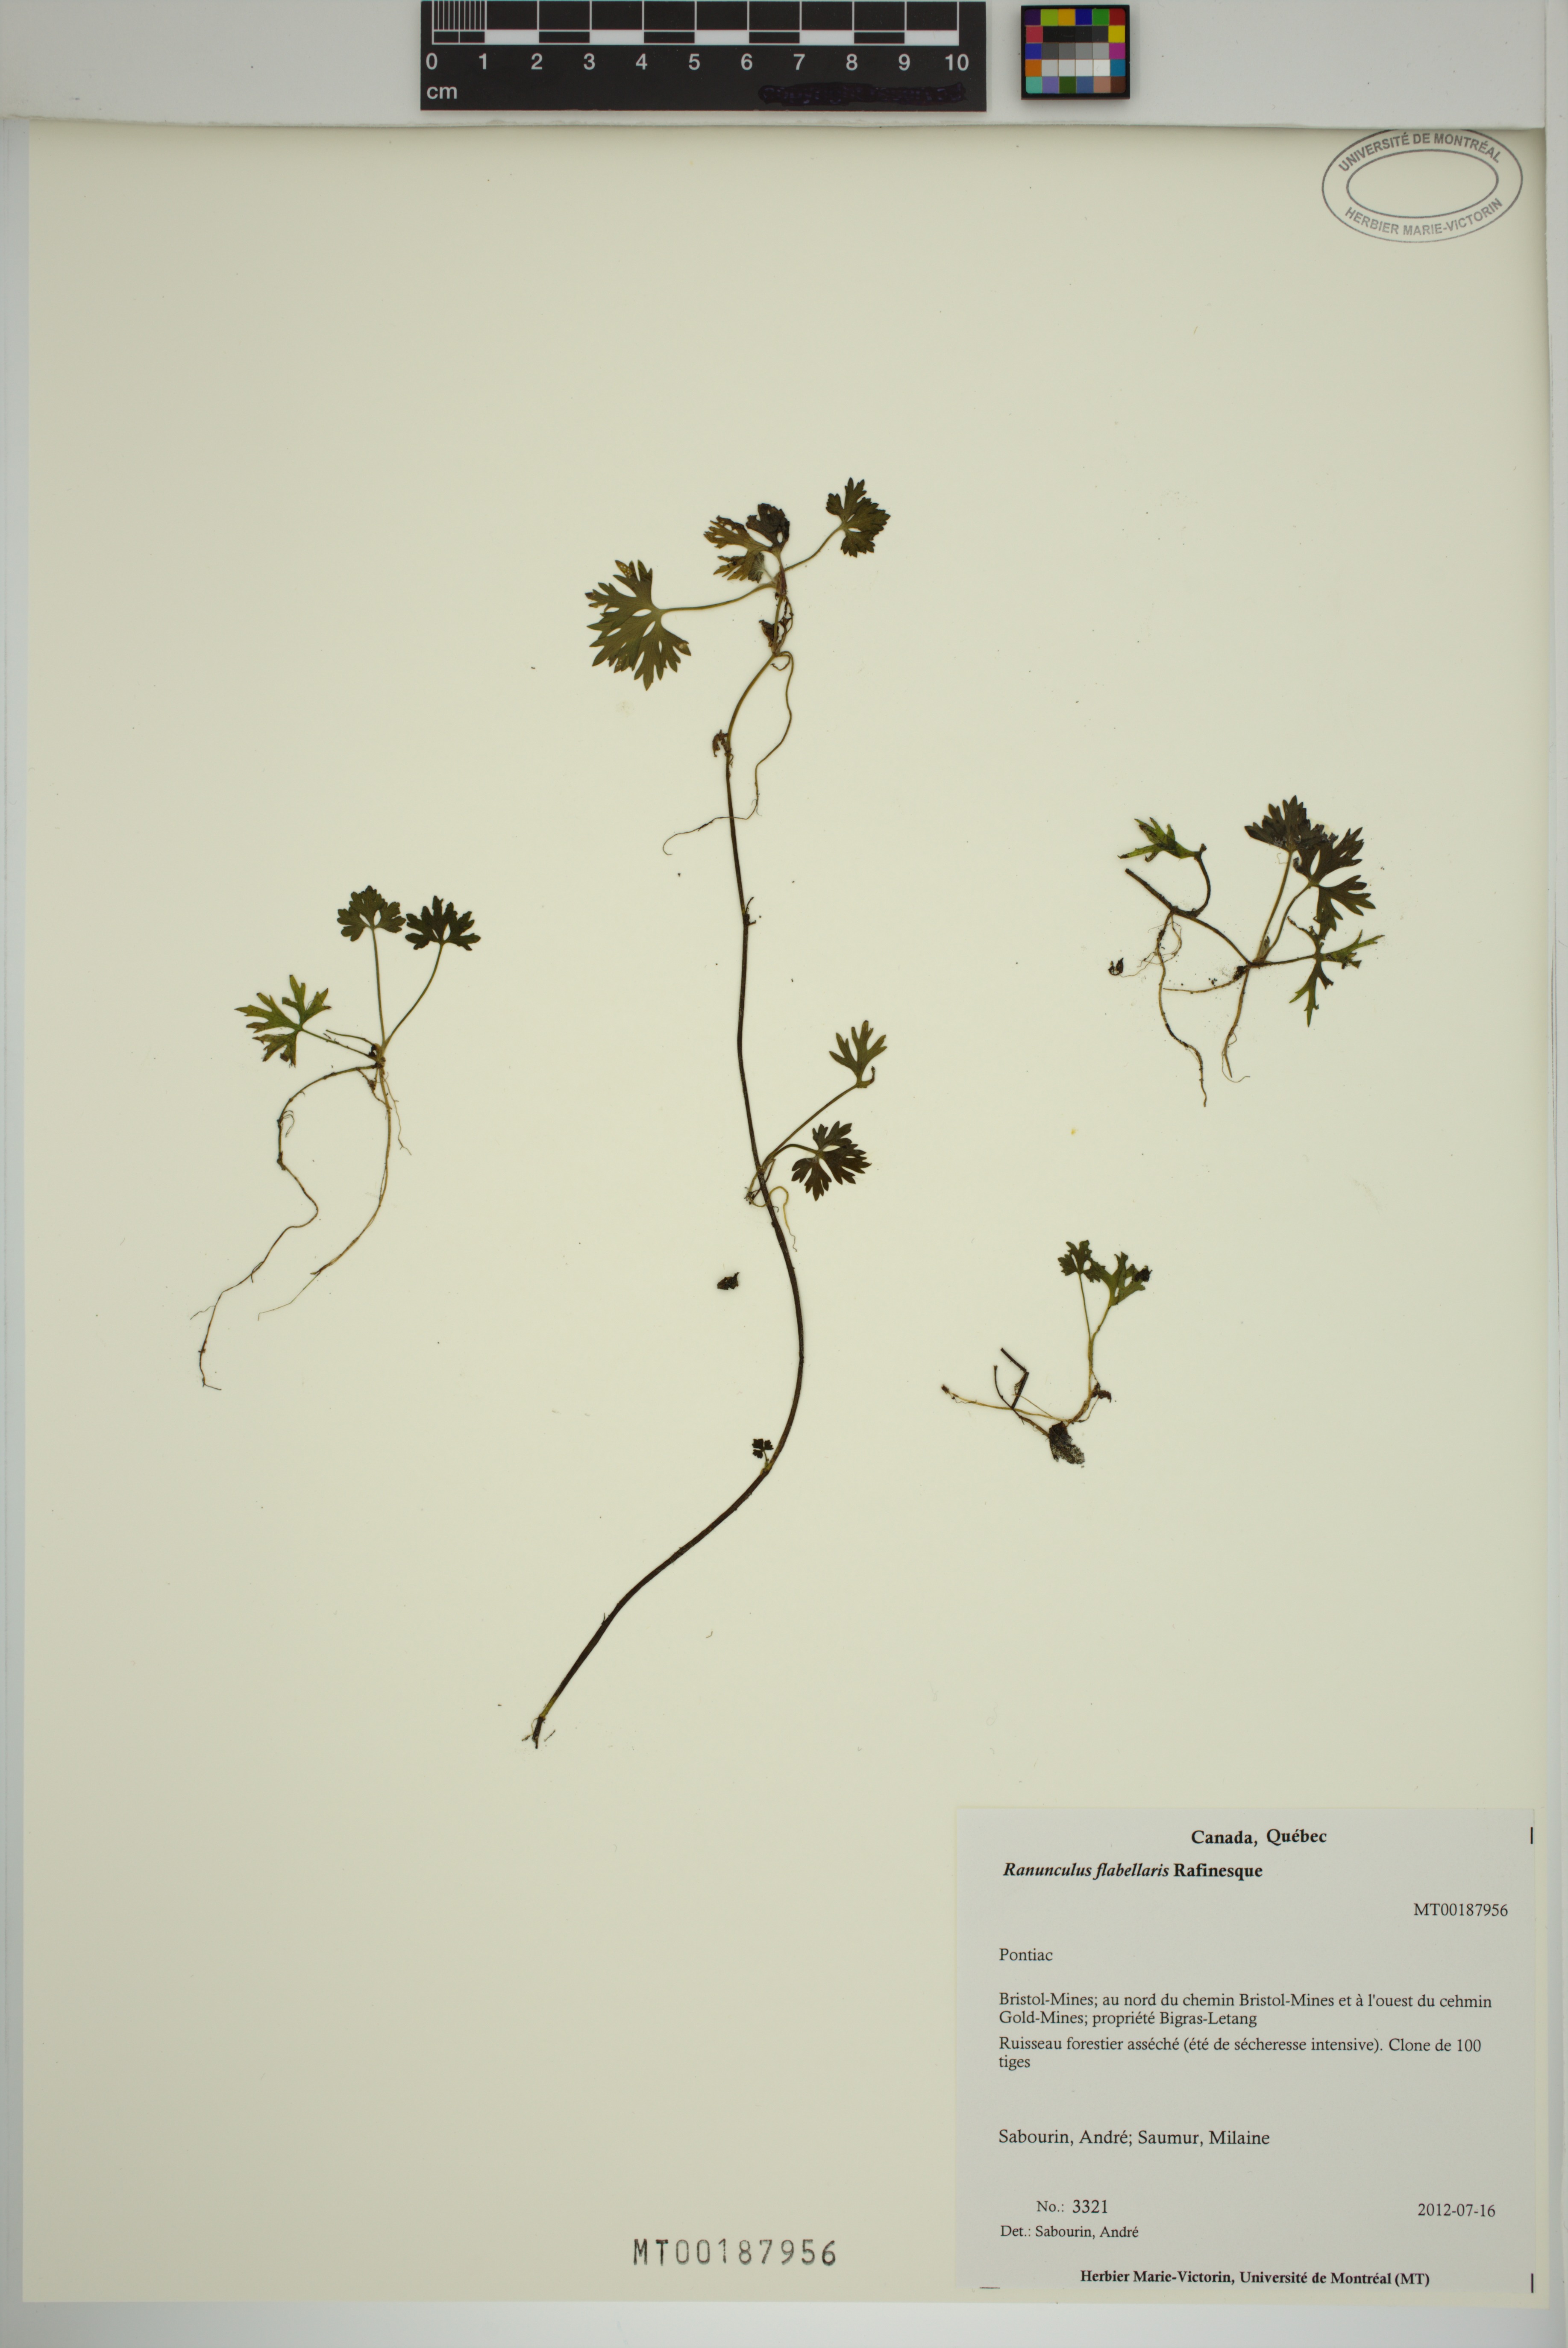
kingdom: Plantae
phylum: Tracheophyta
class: Magnoliopsida
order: Ranunculales
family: Ranunculaceae
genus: Ranunculus
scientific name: Ranunculus flabellaris
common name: Yellow water-crowfoot
